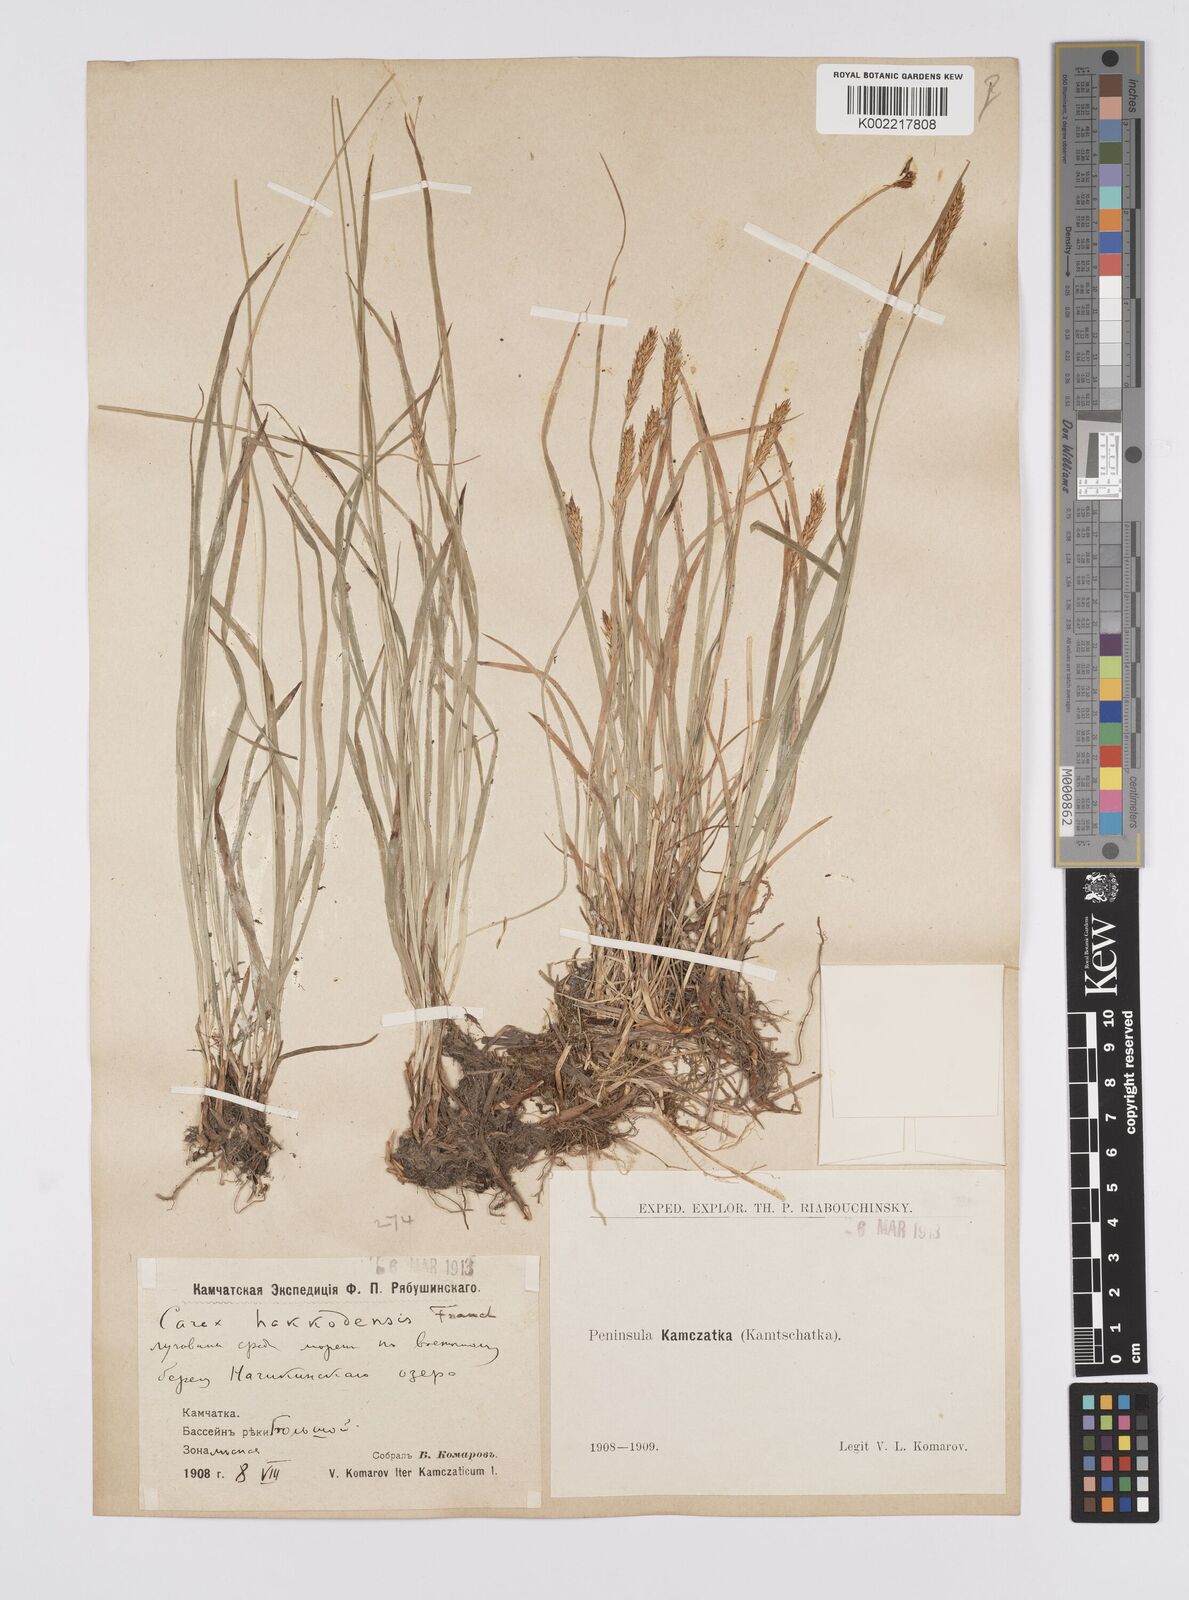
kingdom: Plantae
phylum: Tracheophyta
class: Liliopsida
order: Poales
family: Cyperaceae
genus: Carex
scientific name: Carex hakkodensis
